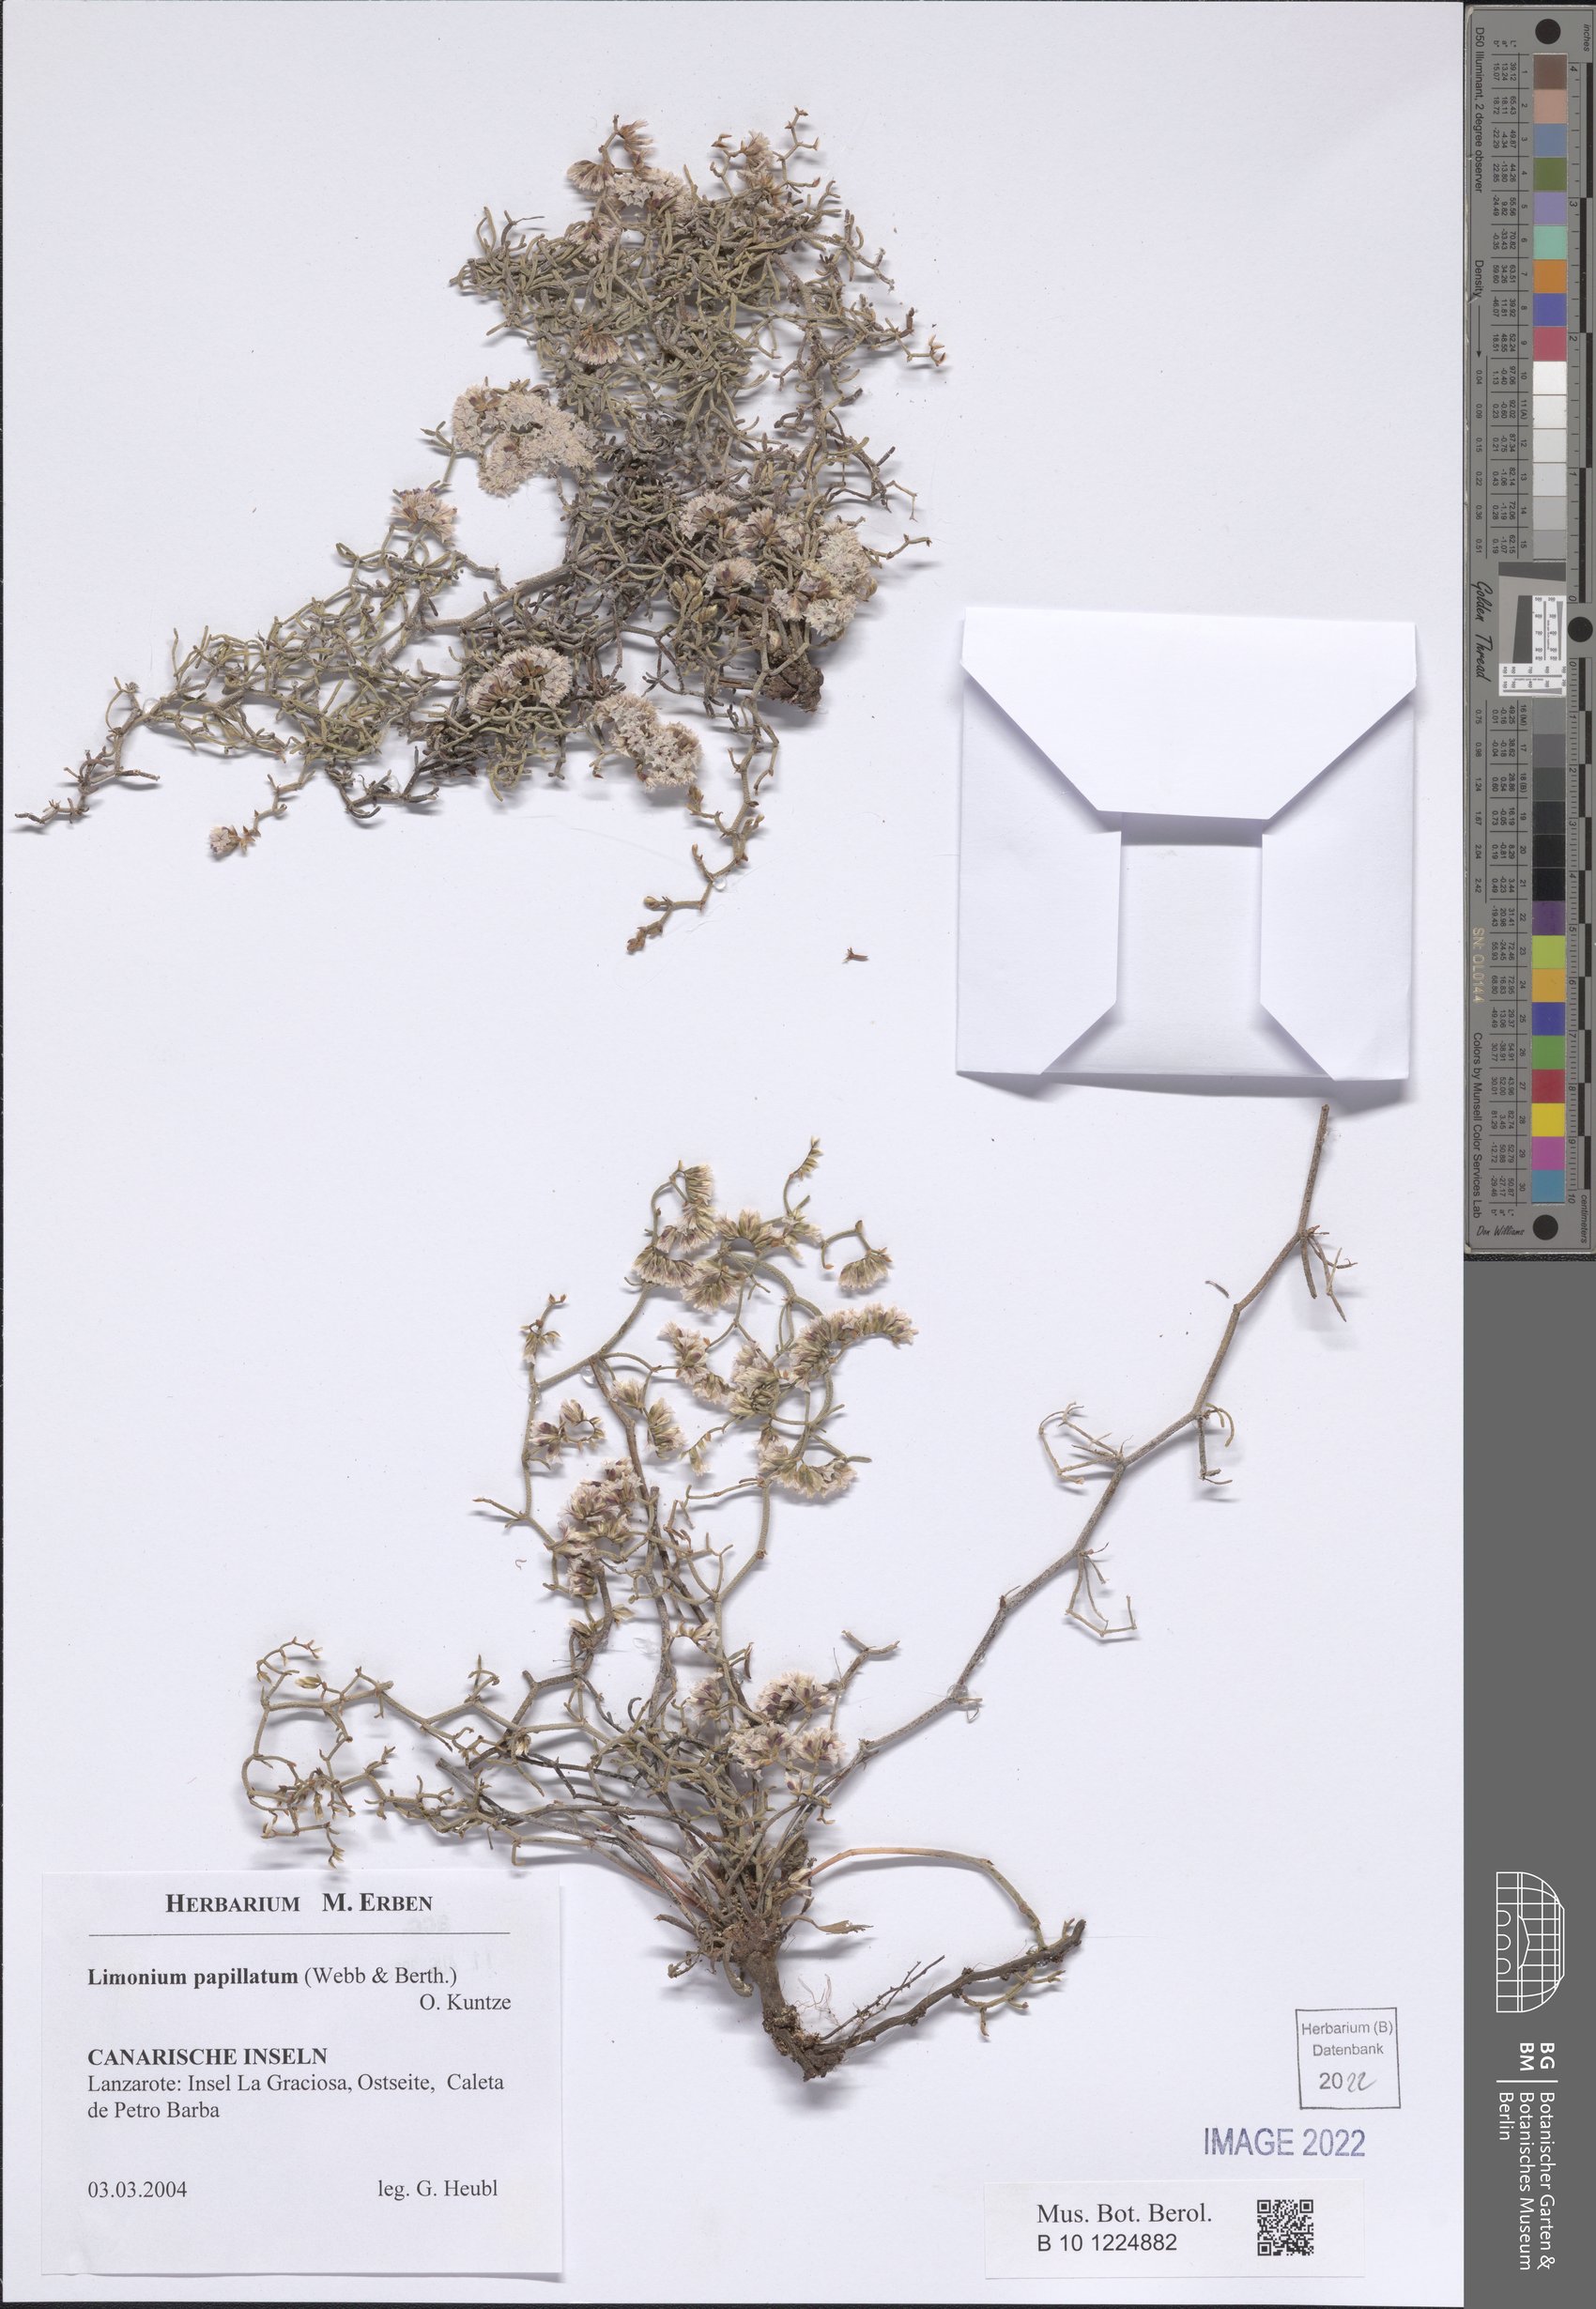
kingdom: Plantae
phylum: Tracheophyta
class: Magnoliopsida
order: Caryophyllales
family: Plumbaginaceae
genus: Limonium
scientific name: Limonium papillatum
